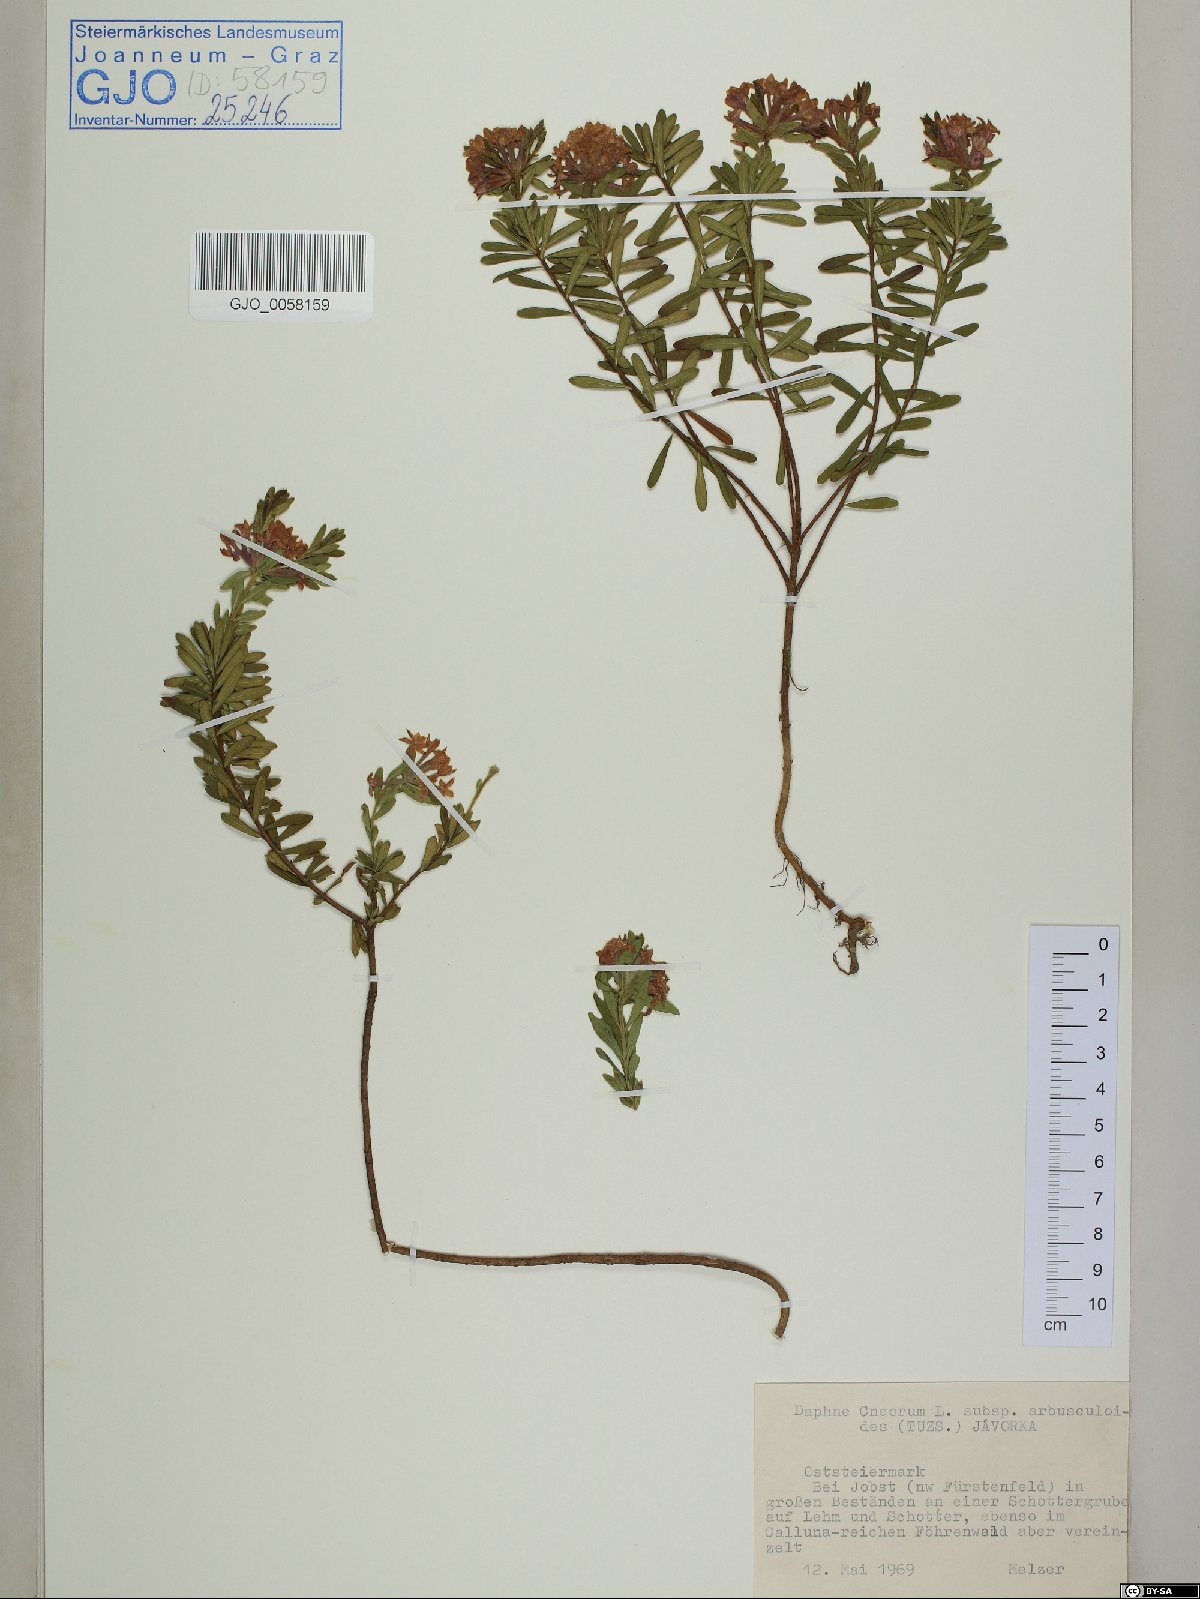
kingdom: Plantae
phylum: Tracheophyta
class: Magnoliopsida
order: Malvales
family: Thymelaeaceae
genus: Daphne
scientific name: Daphne cneorum
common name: Garland-flower
